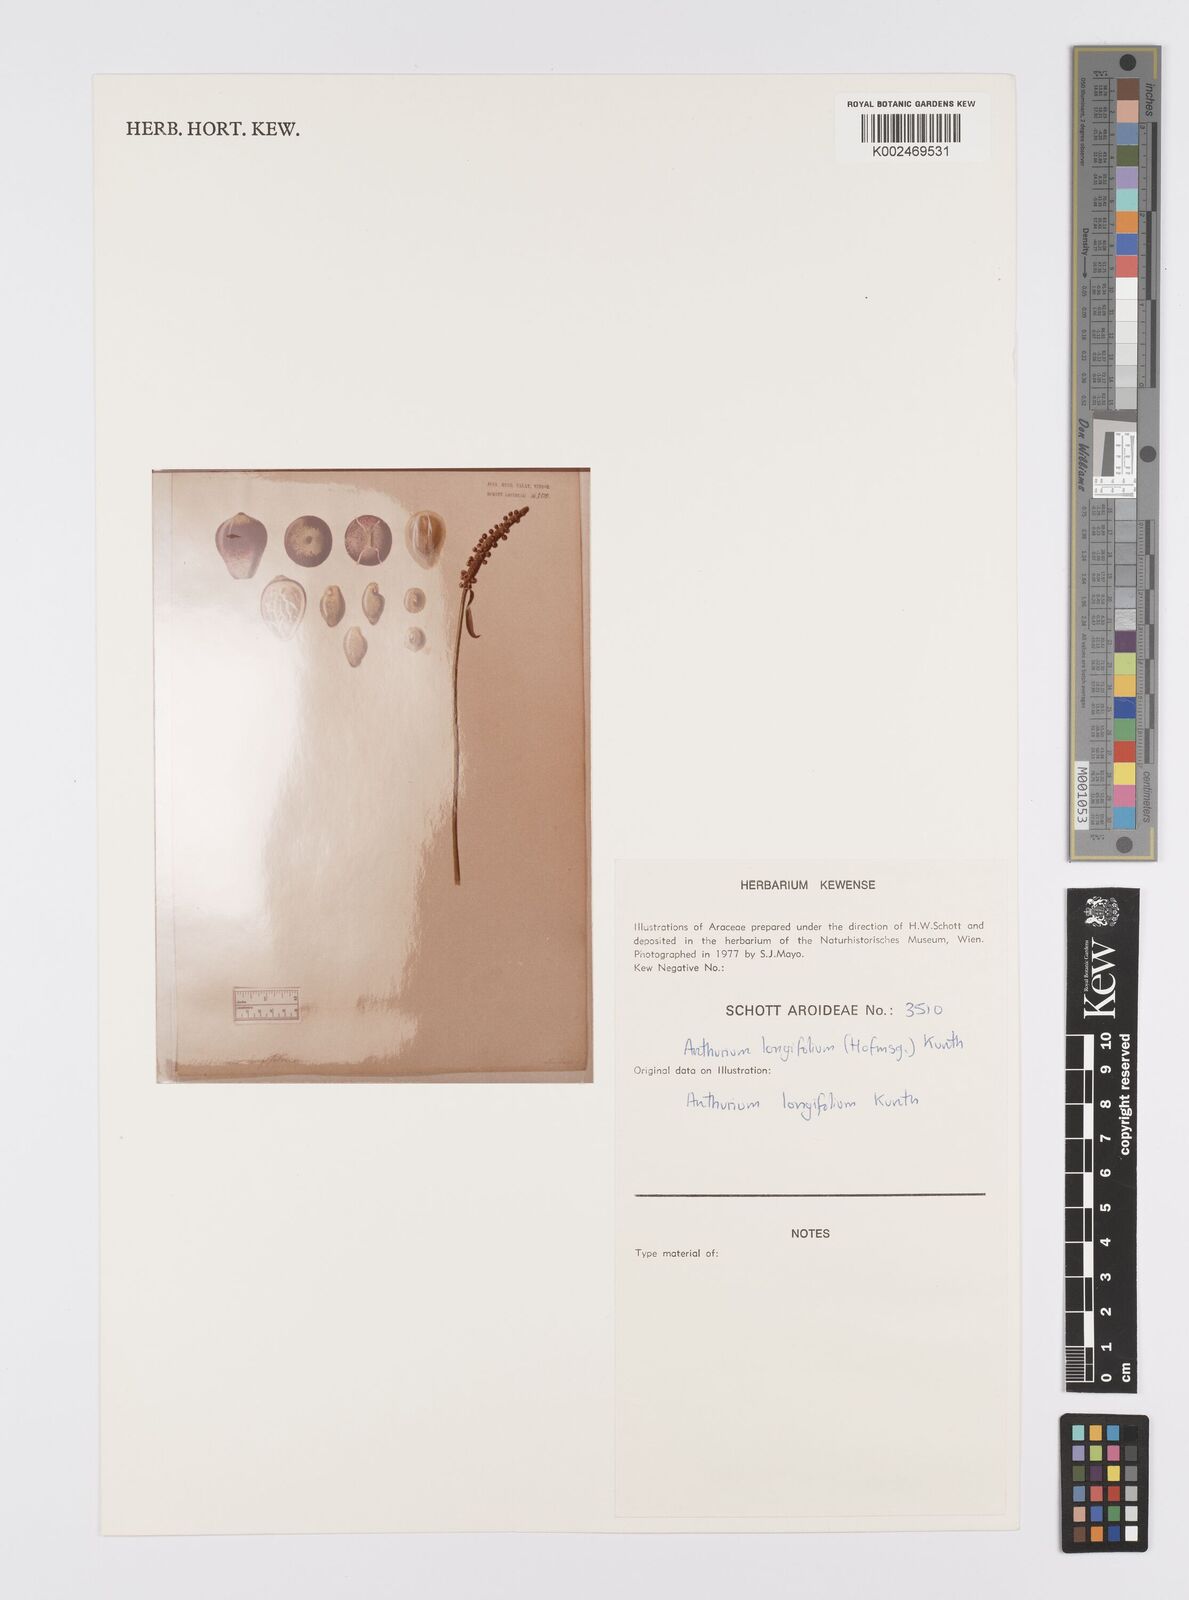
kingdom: Plantae
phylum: Tracheophyta
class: Liliopsida
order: Alismatales
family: Araceae
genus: Anthurium
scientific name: Anthurium longifolium
